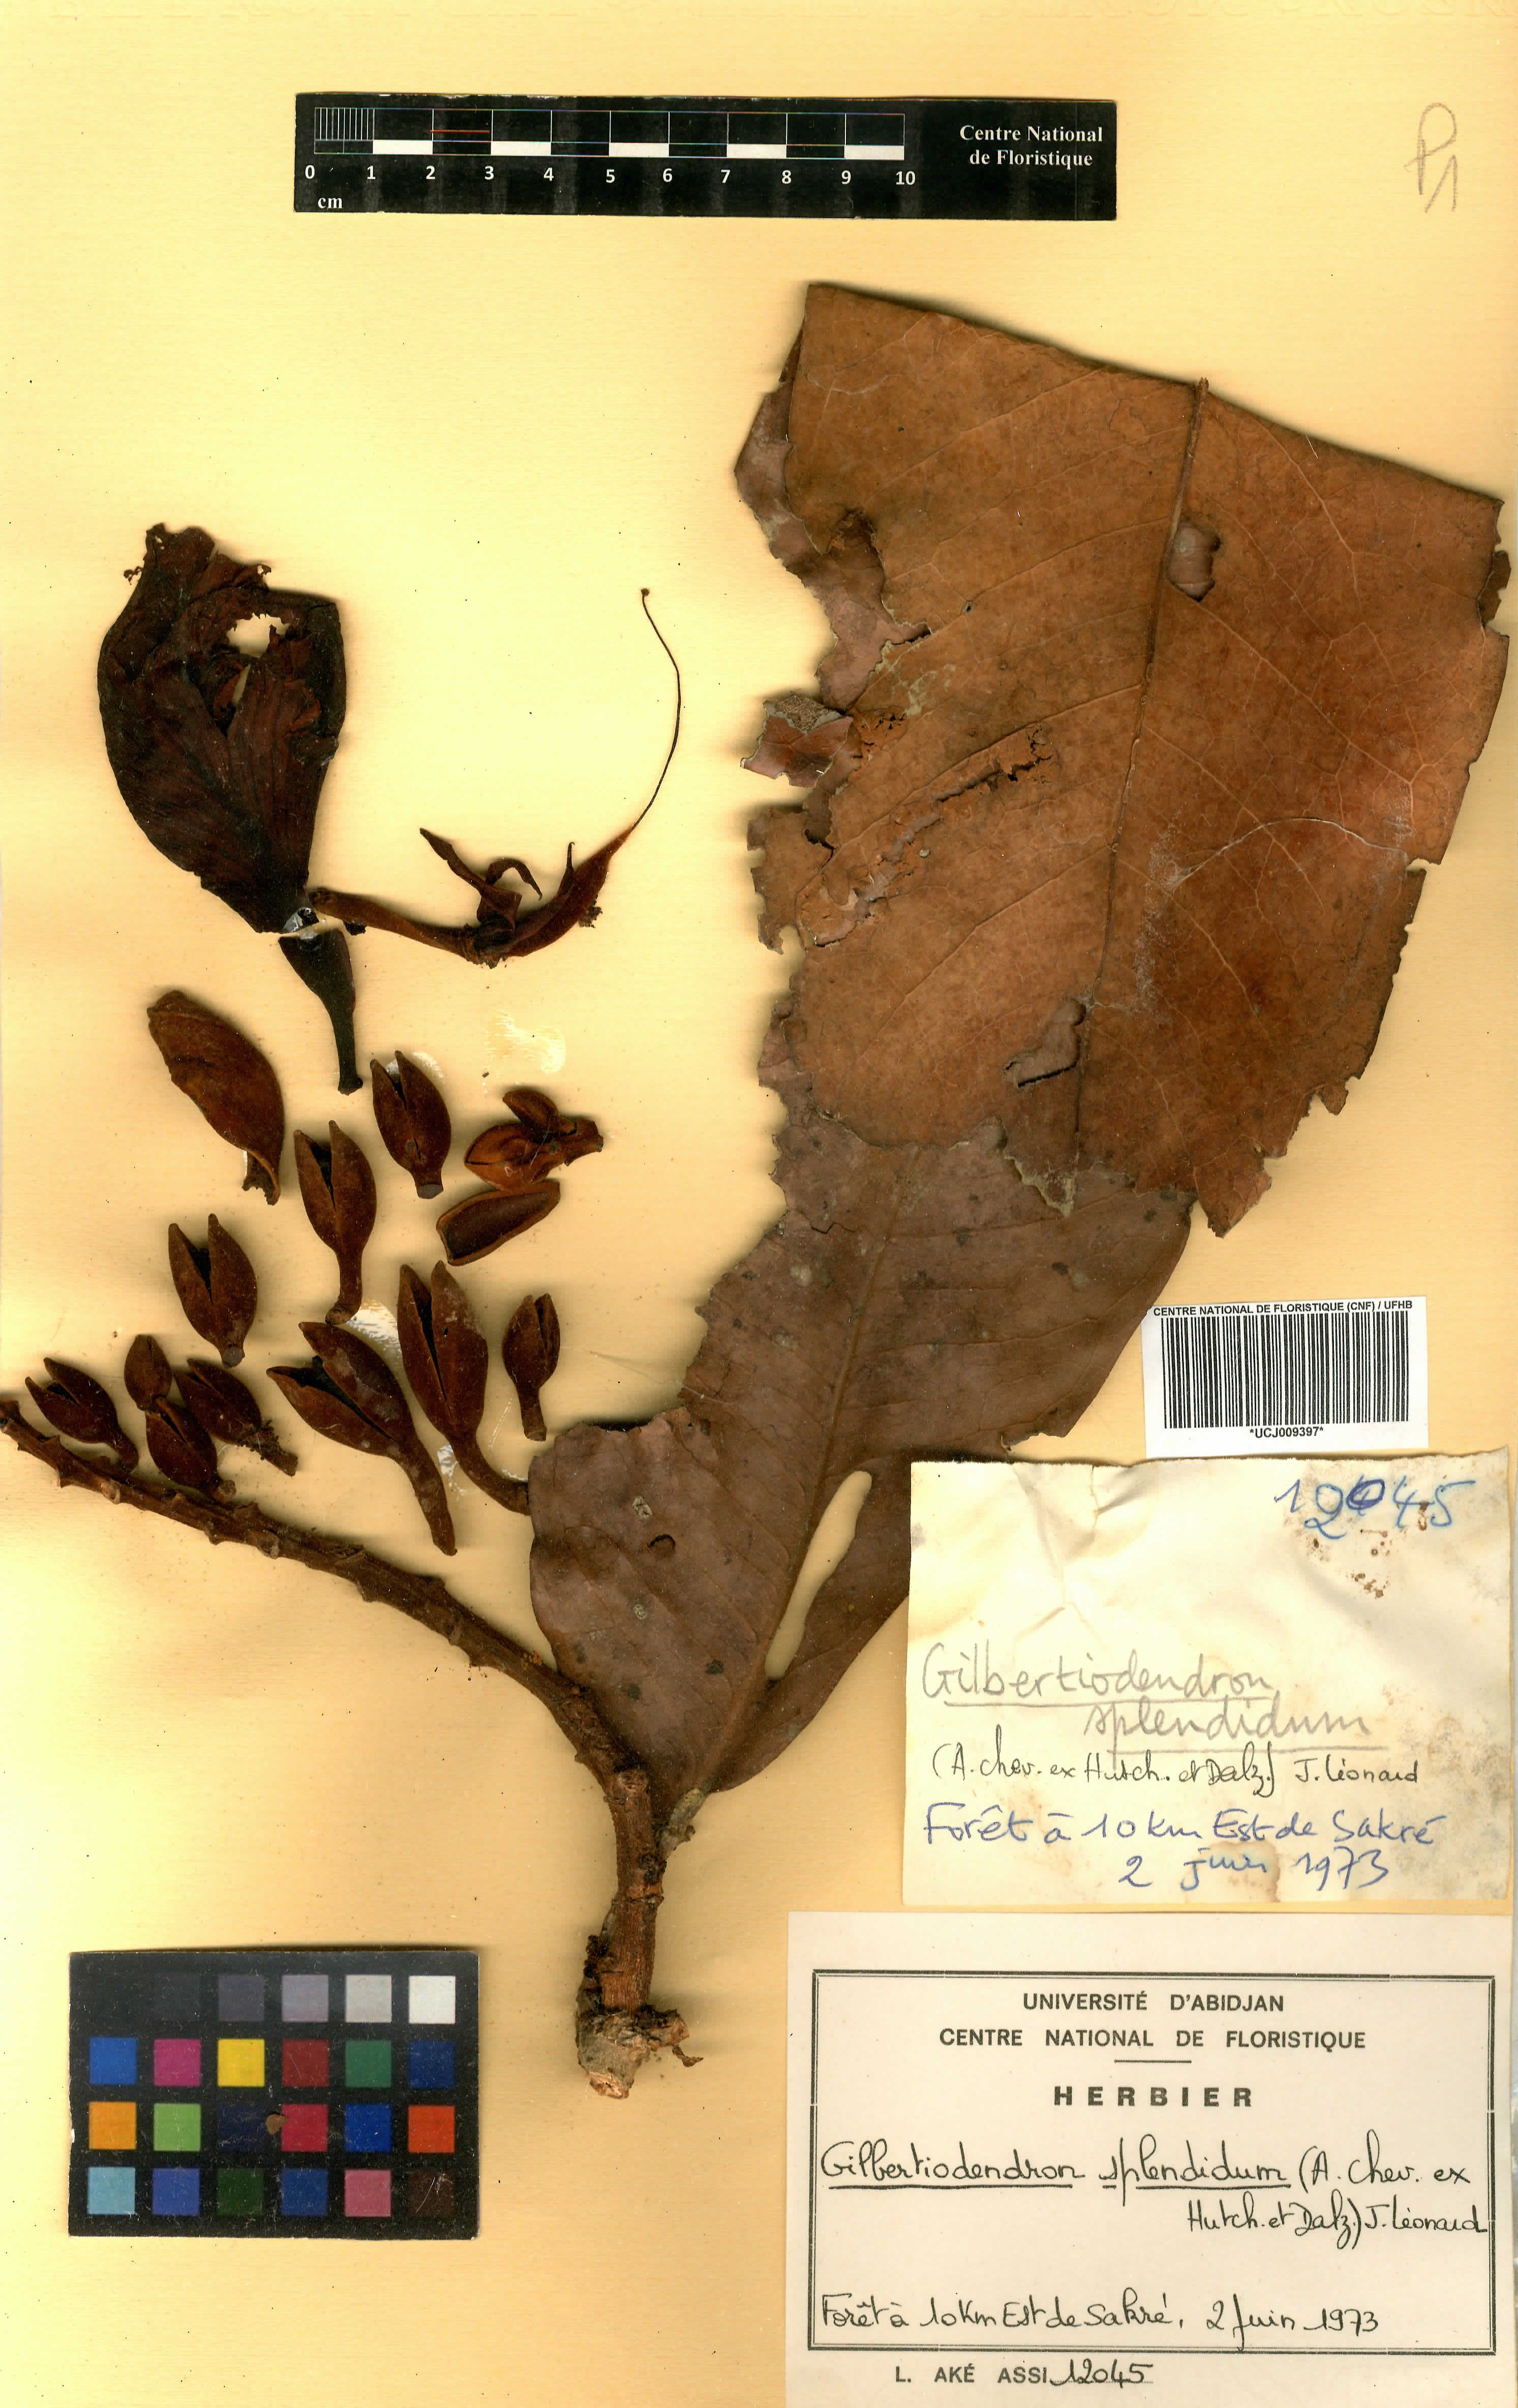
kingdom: Plantae
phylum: Tracheophyta
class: Magnoliopsida
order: Fabales
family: Fabaceae
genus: Gilbertiodendron
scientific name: Gilbertiodendron splendidum
